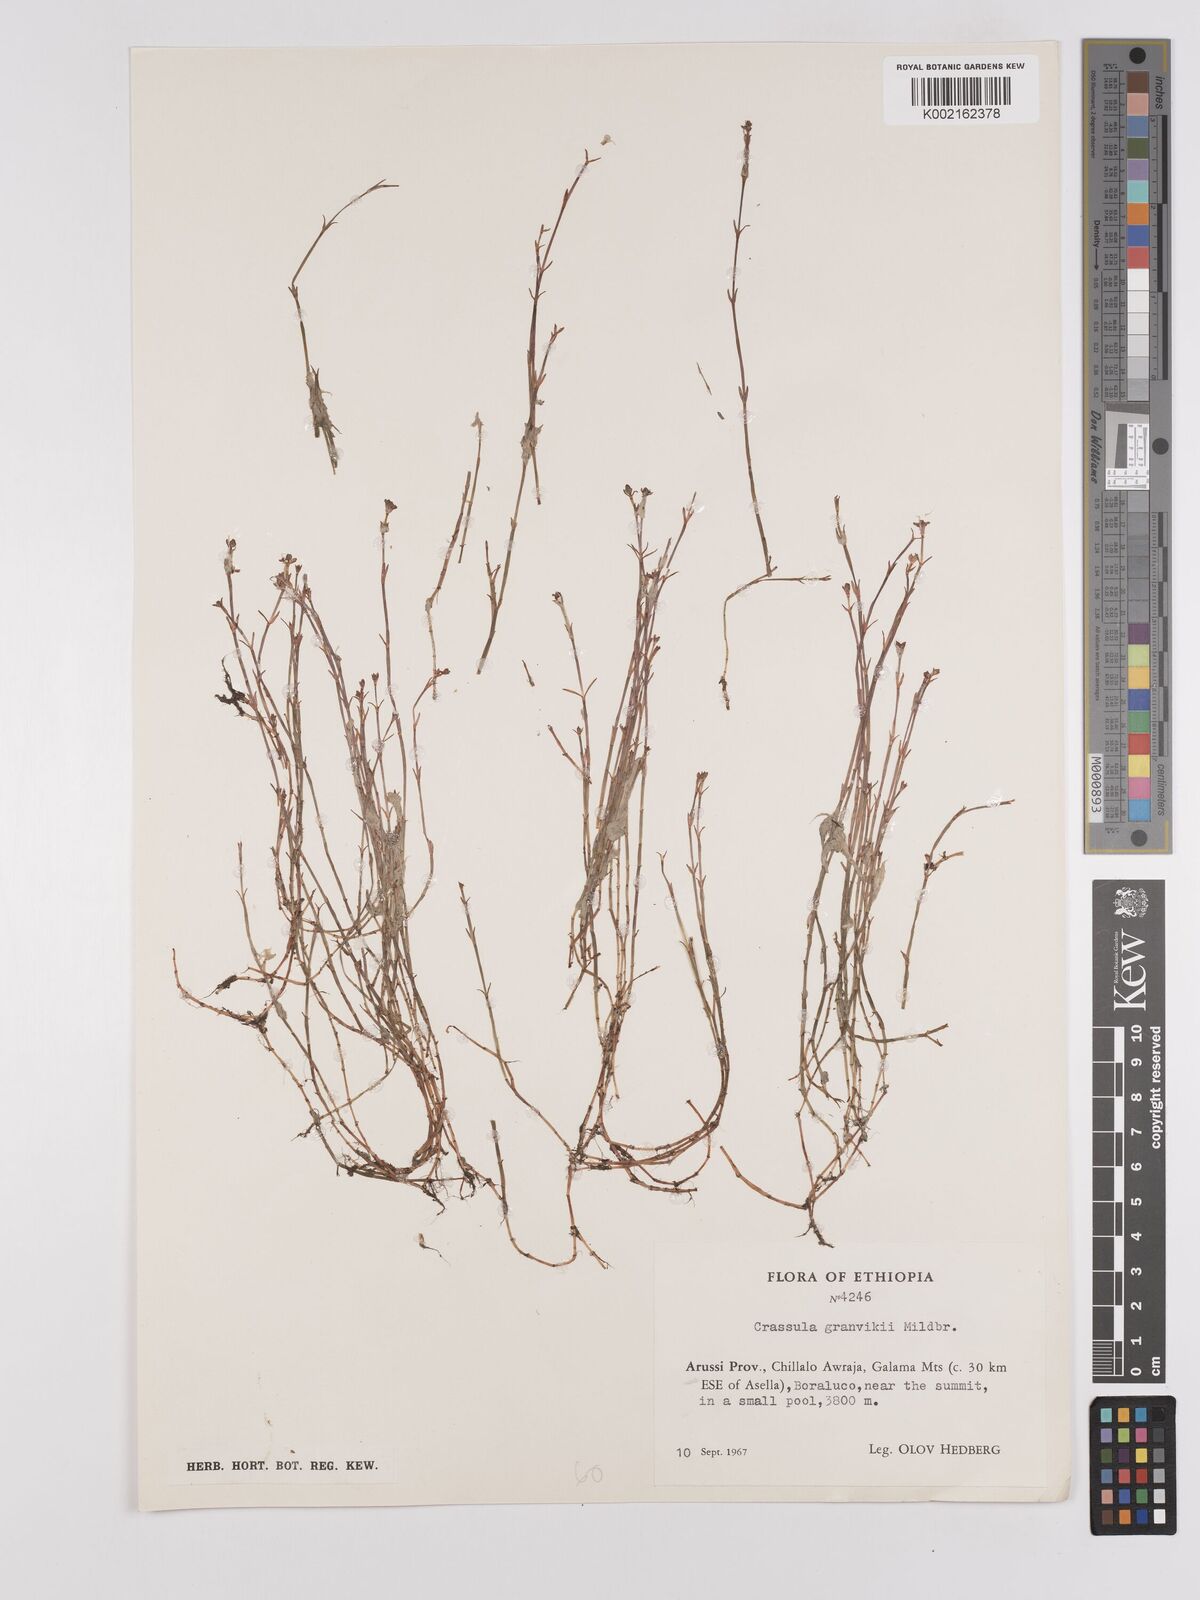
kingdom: Plantae
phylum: Tracheophyta
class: Magnoliopsida
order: Saxifragales
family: Crassulaceae
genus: Crassula
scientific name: Crassula
